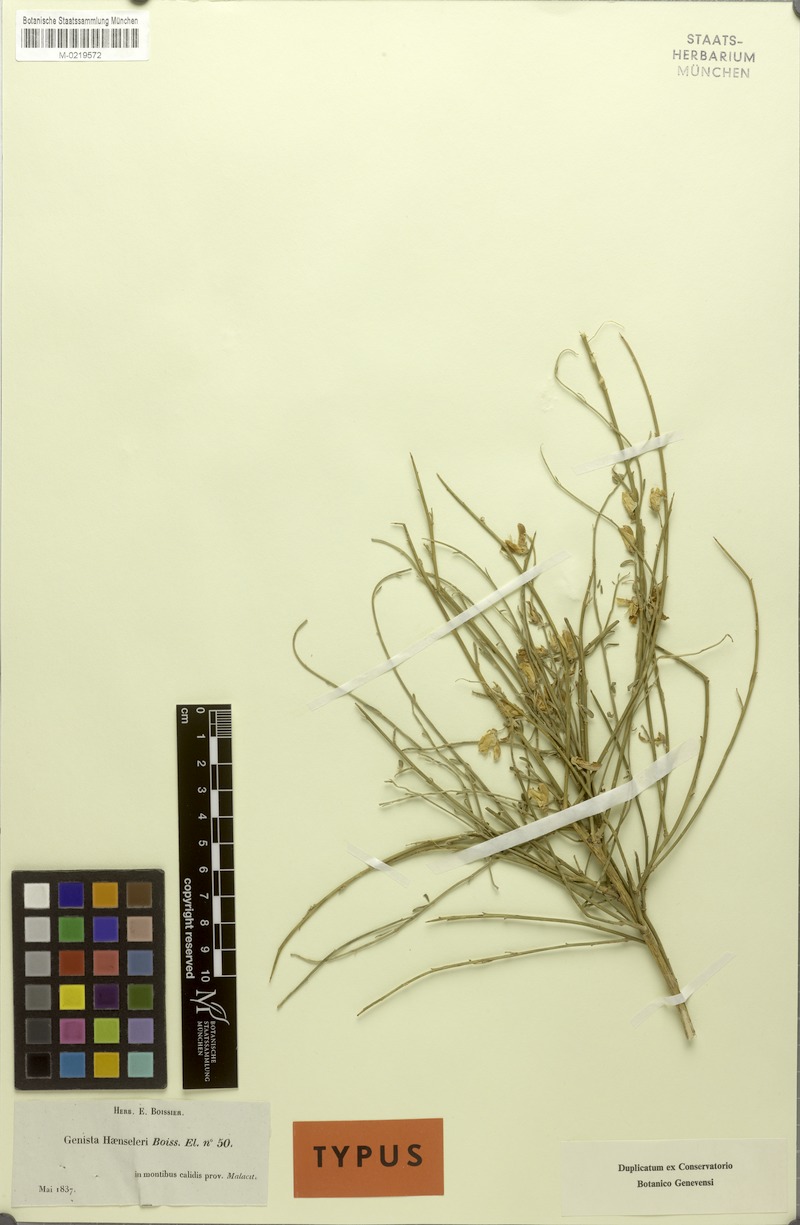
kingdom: Plantae
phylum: Tracheophyta
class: Magnoliopsida
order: Fabales
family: Fabaceae
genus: Genista
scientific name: Genista haenseleri
